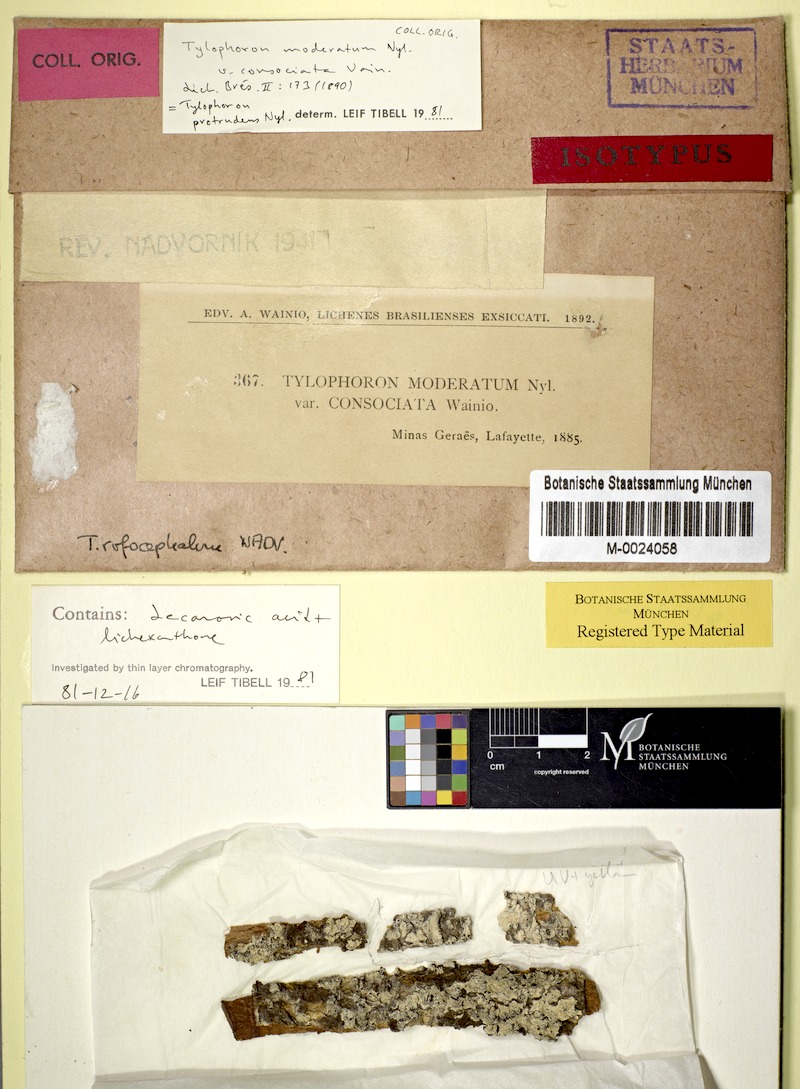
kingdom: Fungi
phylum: Ascomycota
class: Arthoniomycetes
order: Arthoniales
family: Arthoniaceae
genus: Tylophoron
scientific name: Tylophoron protrudens
